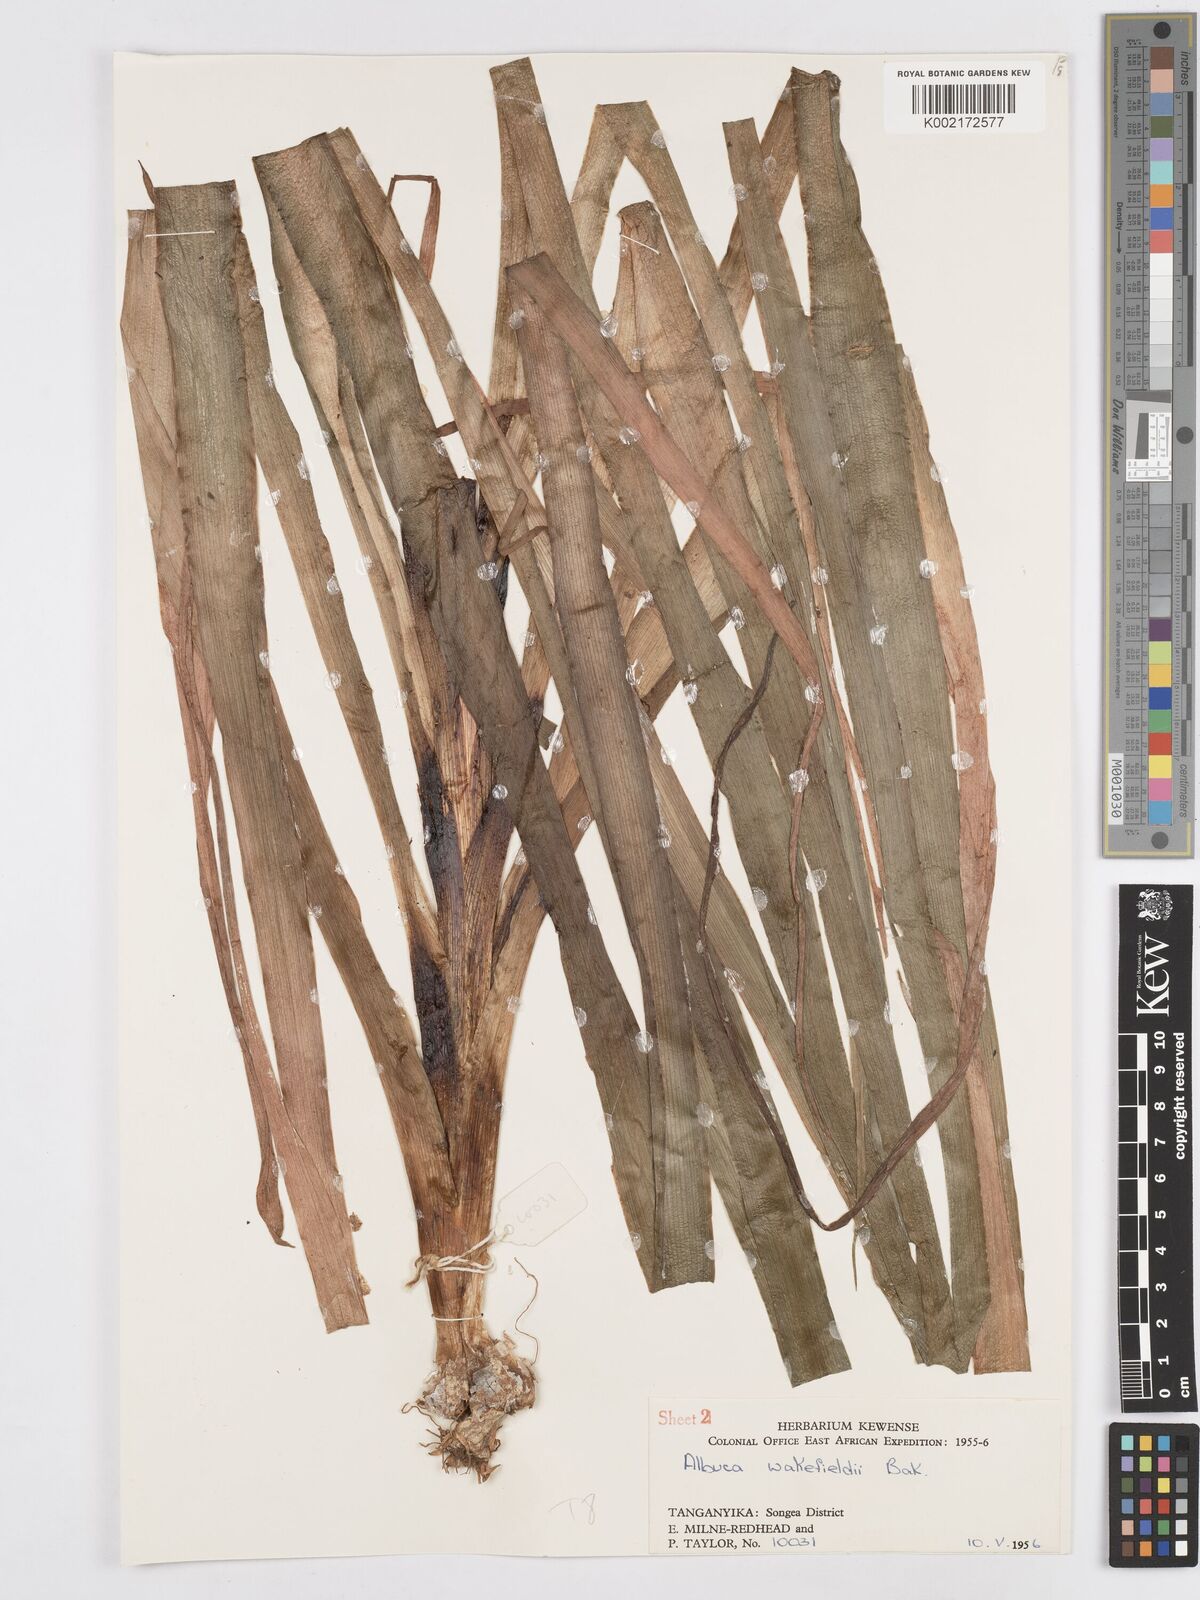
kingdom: Plantae
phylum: Tracheophyta
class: Liliopsida
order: Asparagales
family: Asparagaceae
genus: Albuca
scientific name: Albuca abyssinica
